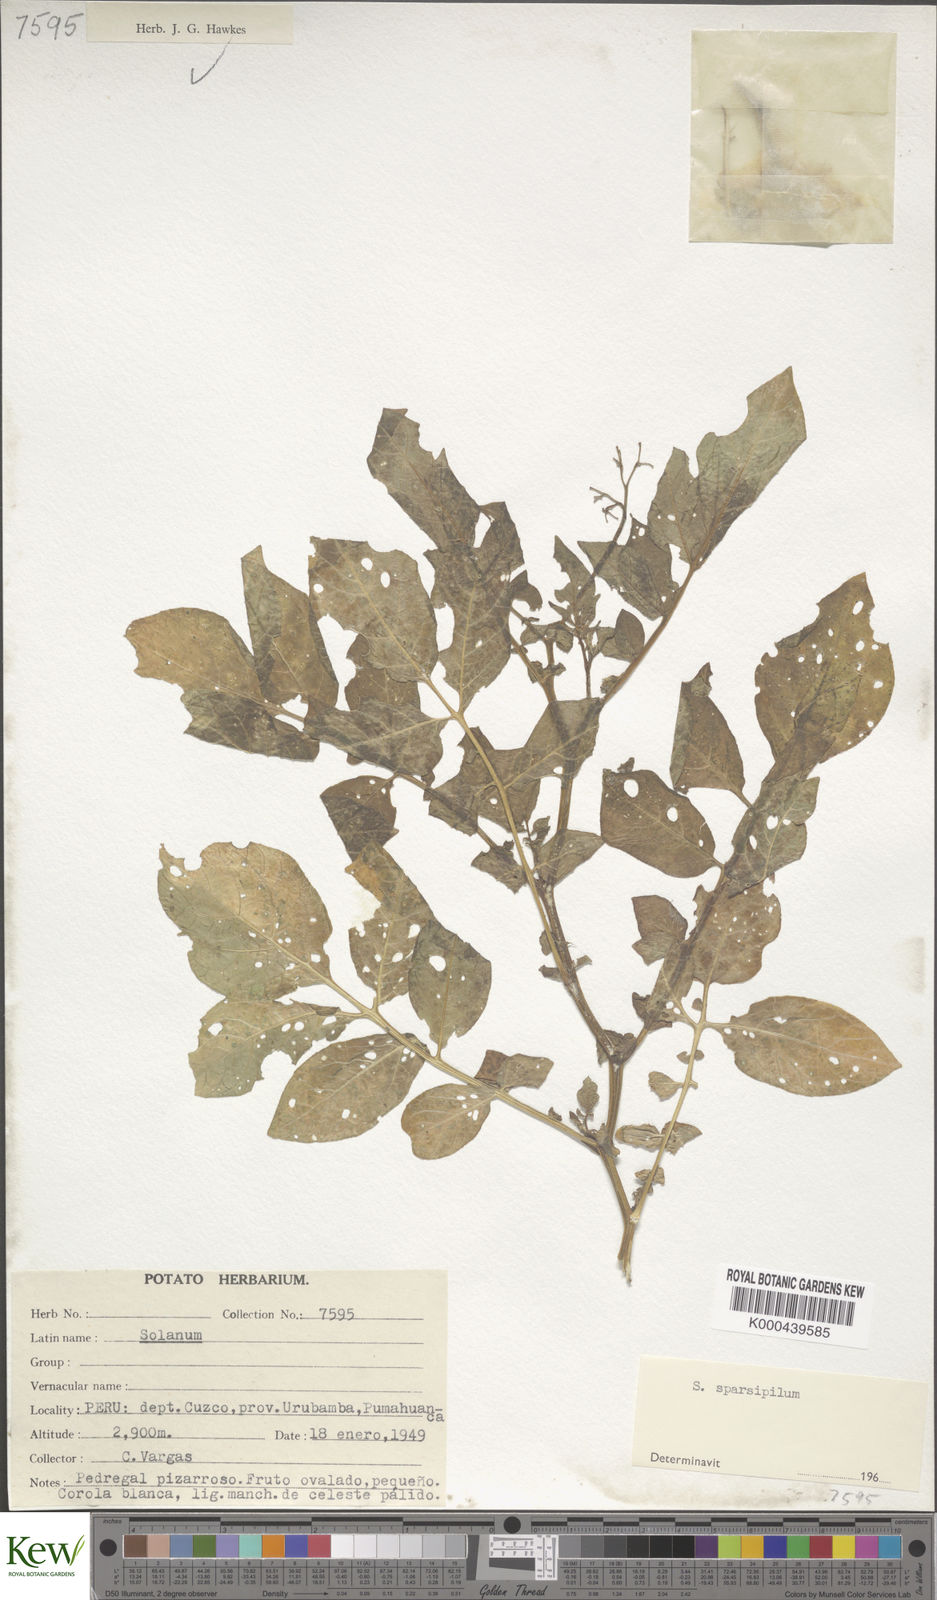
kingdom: Plantae
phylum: Tracheophyta
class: Magnoliopsida
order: Solanales
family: Solanaceae
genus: Solanum
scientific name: Solanum brevicaule
